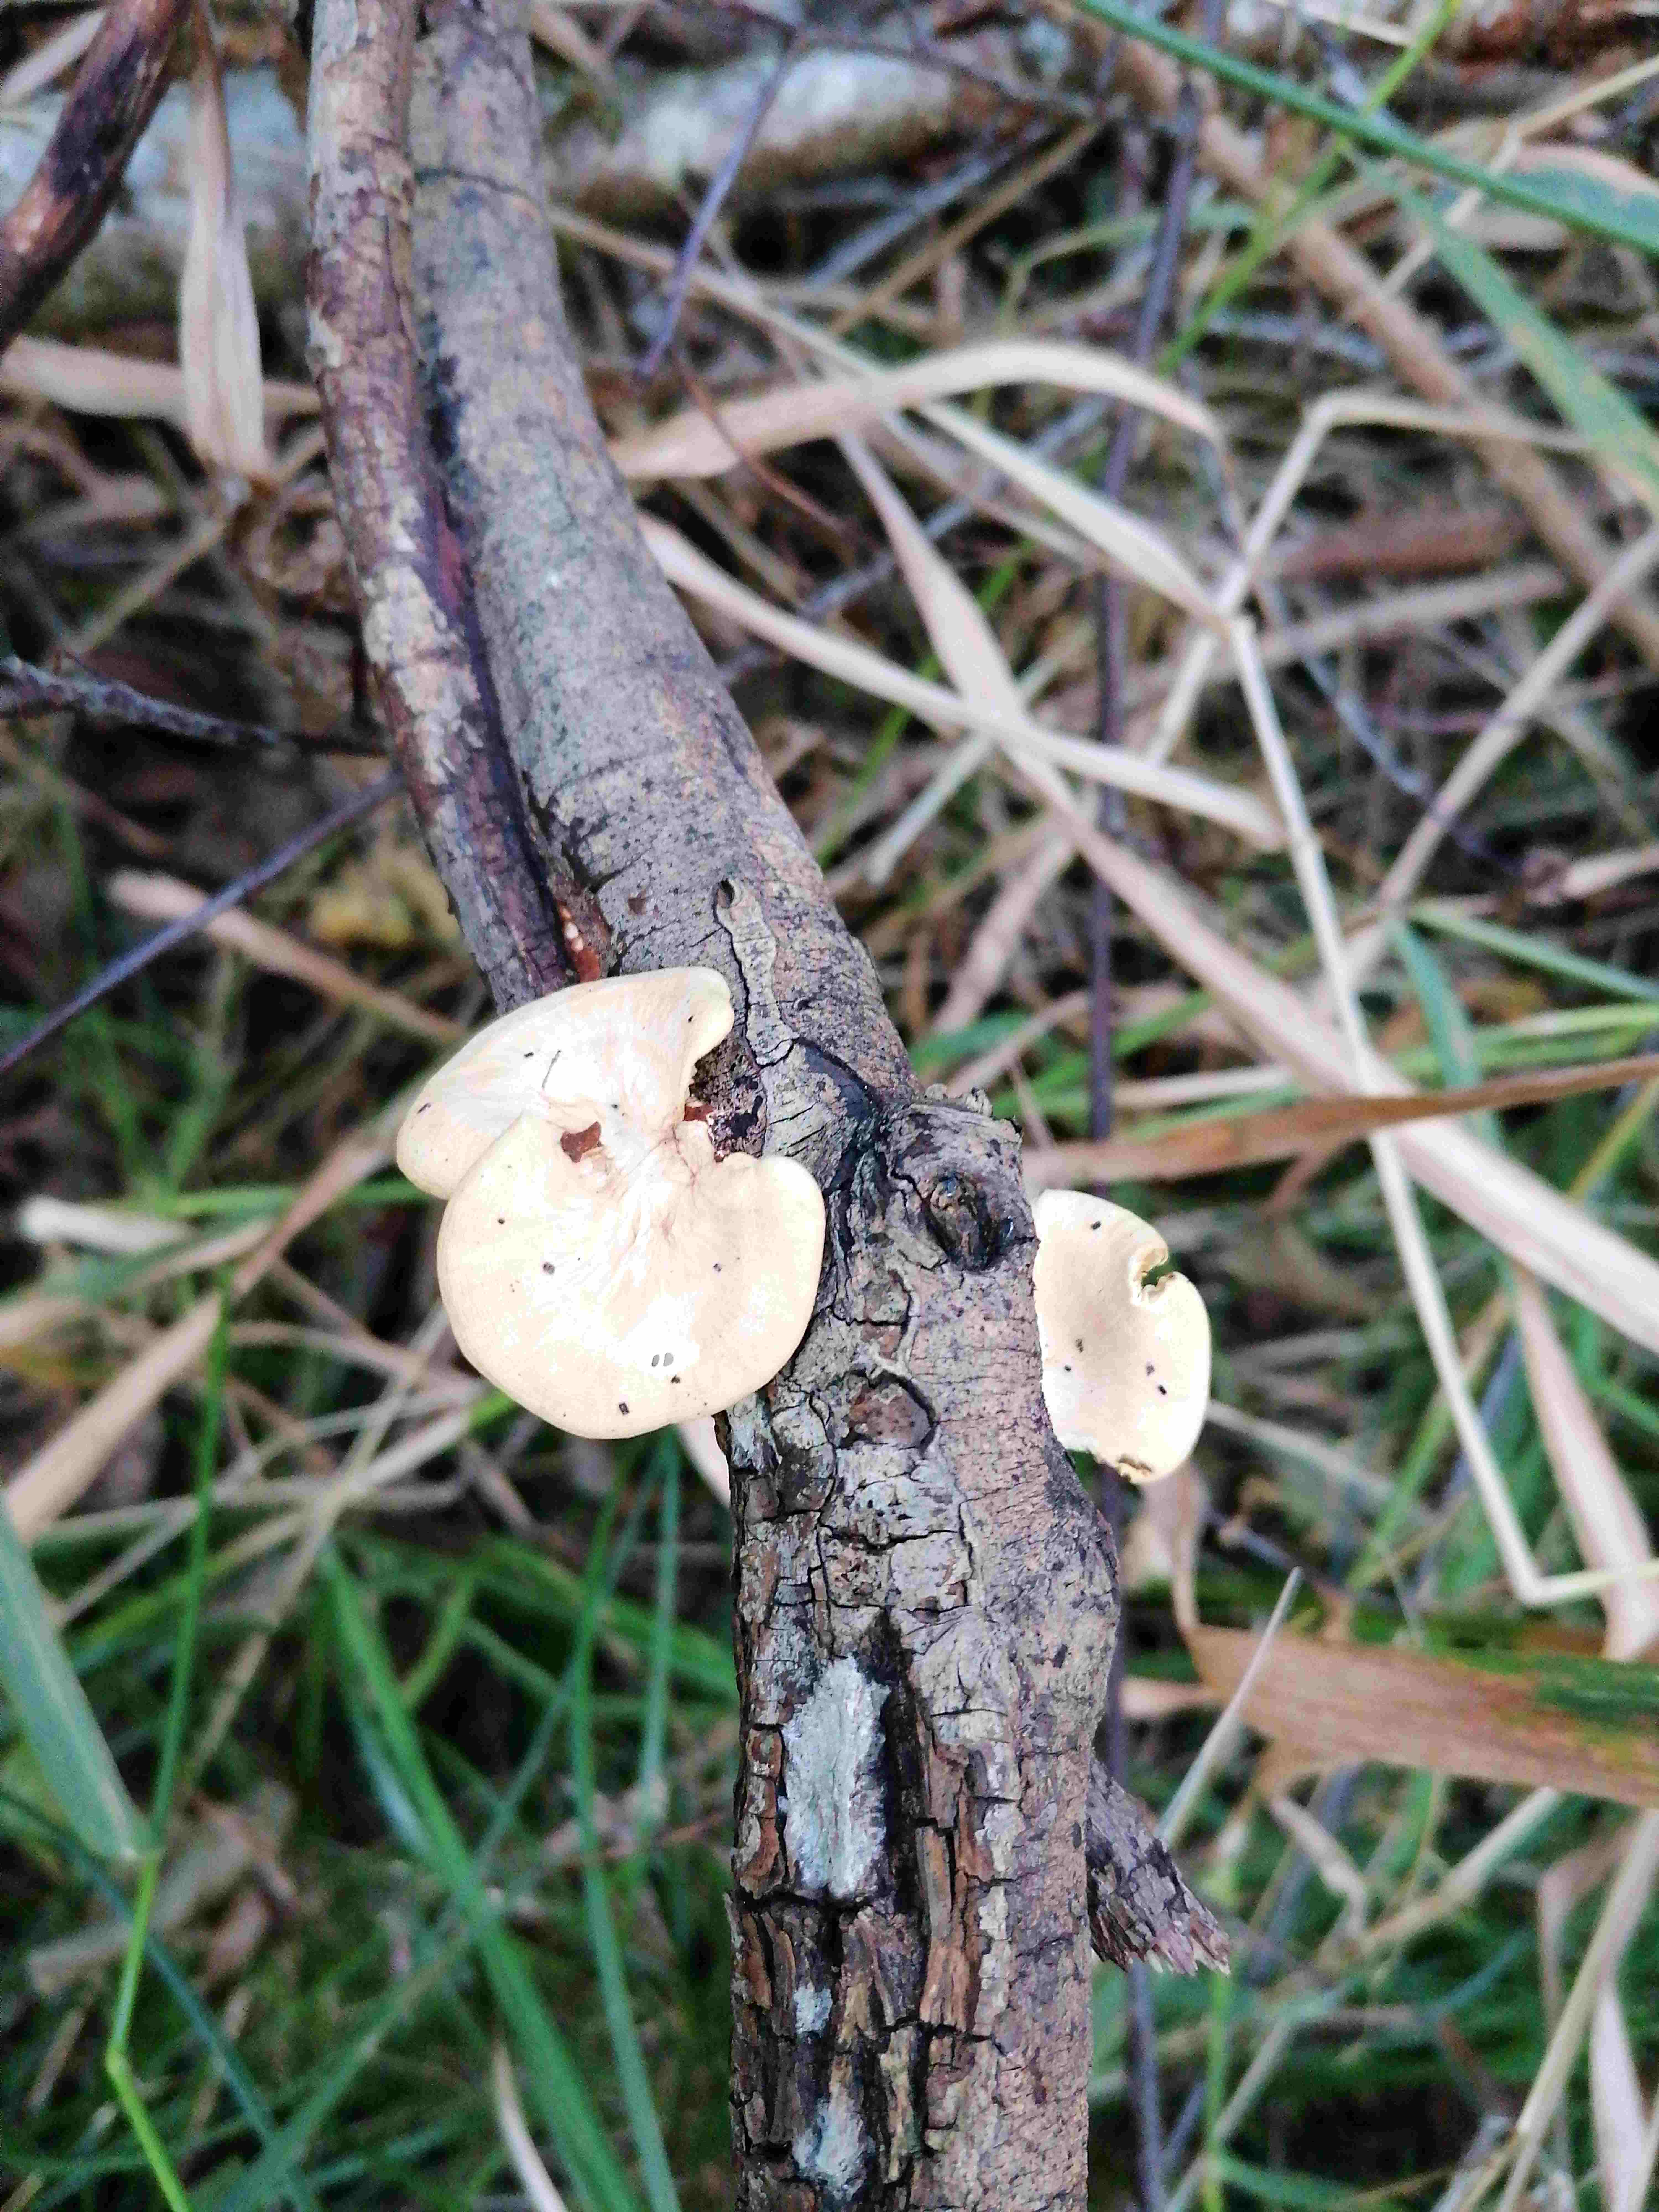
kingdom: Fungi
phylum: Basidiomycota
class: Agaricomycetes
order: Polyporales
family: Polyporaceae
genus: Neofavolus
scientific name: Neofavolus
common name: anishat
